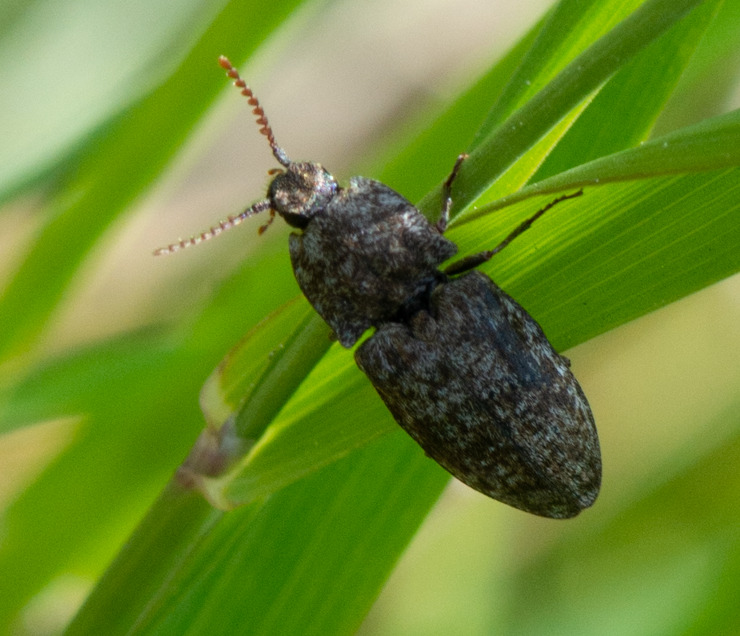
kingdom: Animalia
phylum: Arthropoda
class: Insecta
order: Coleoptera
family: Elateridae
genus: Agrypnus
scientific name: Agrypnus murinus
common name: Musegrå smælder
